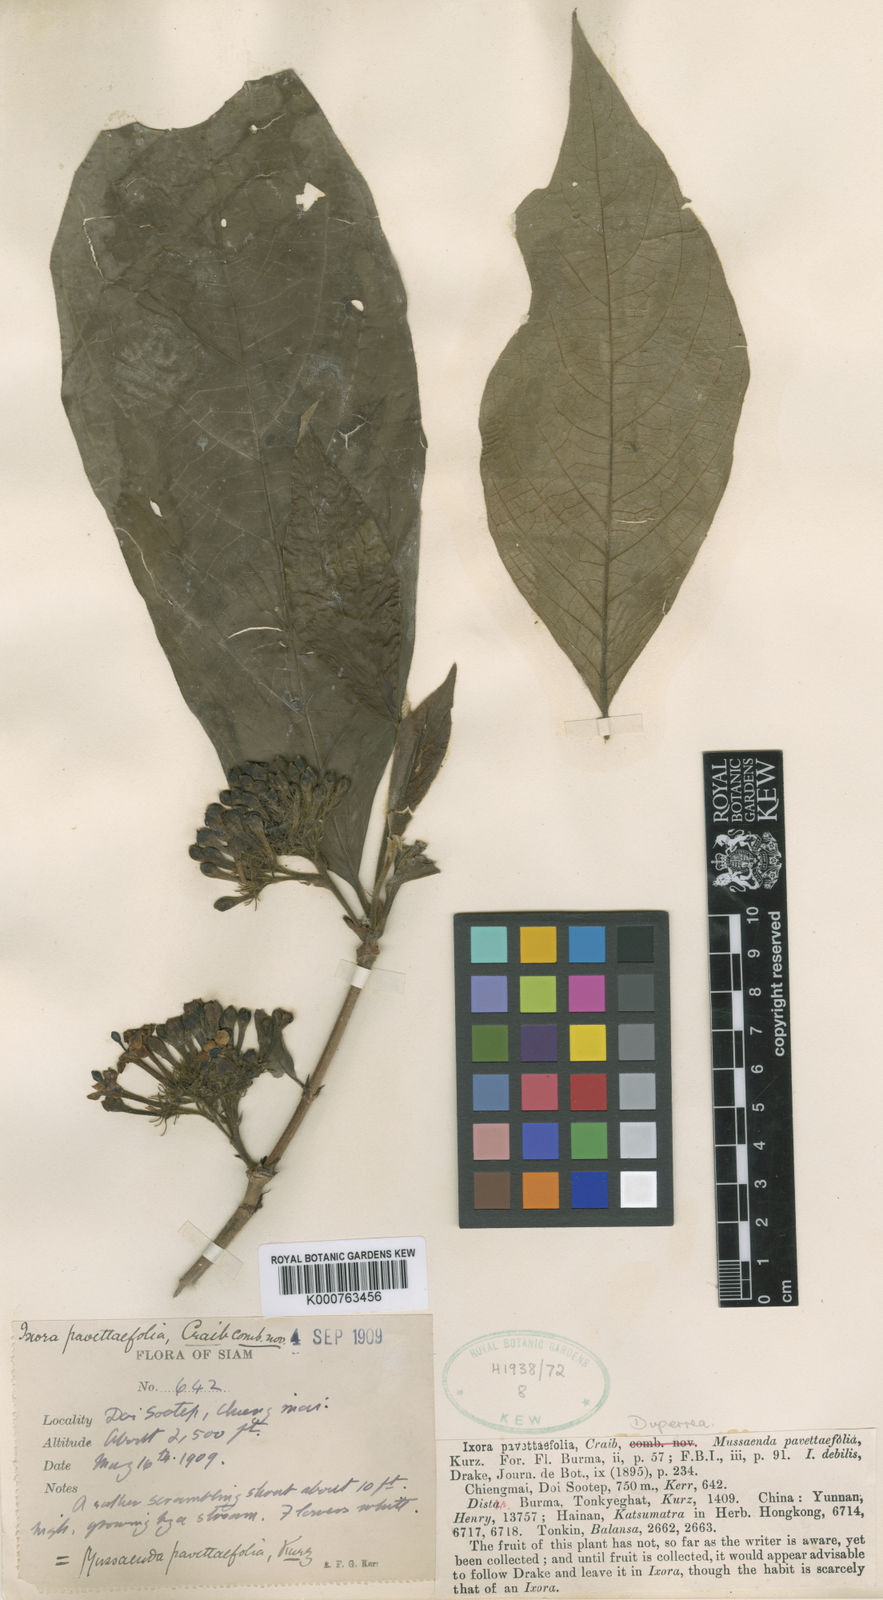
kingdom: Plantae
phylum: Tracheophyta
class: Magnoliopsida
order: Gentianales
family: Rubiaceae
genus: Duperrea
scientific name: Duperrea pavettifolia
